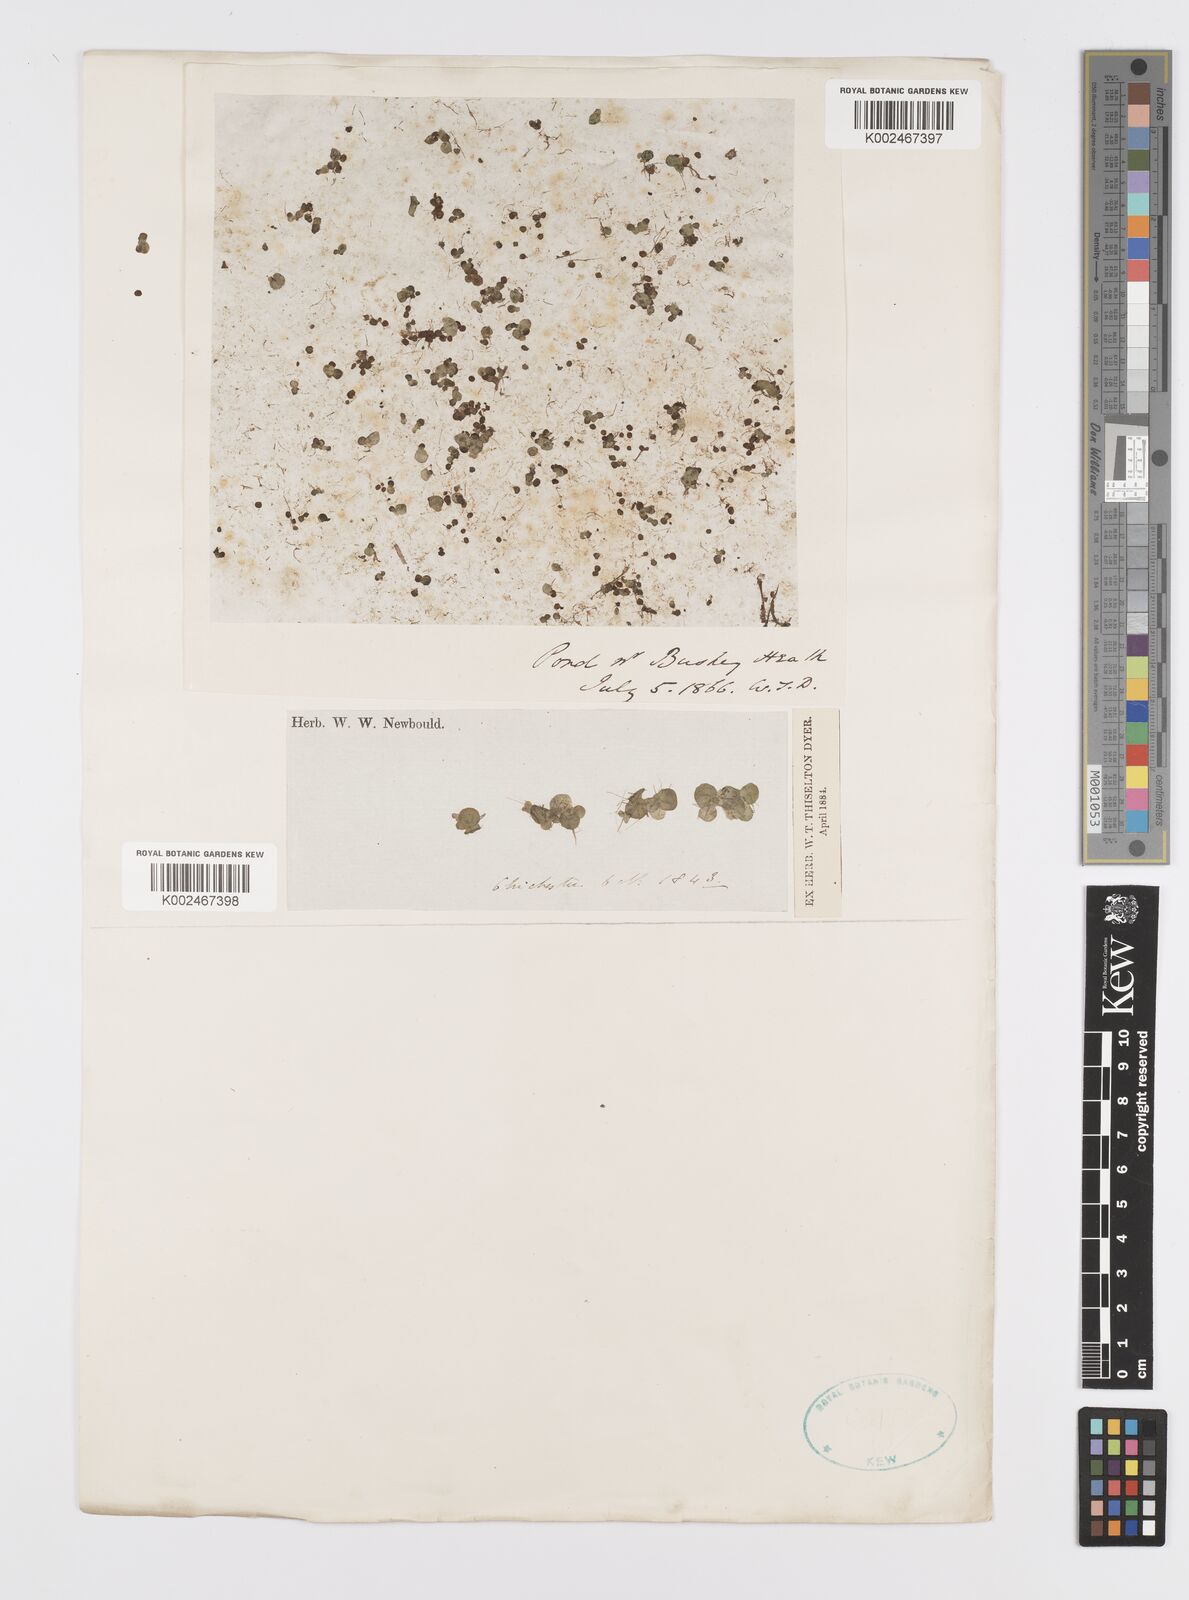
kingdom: Plantae
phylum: Tracheophyta
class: Liliopsida
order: Alismatales
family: Araceae
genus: Spirodela
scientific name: Spirodela polyrhiza
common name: Great duckweed
